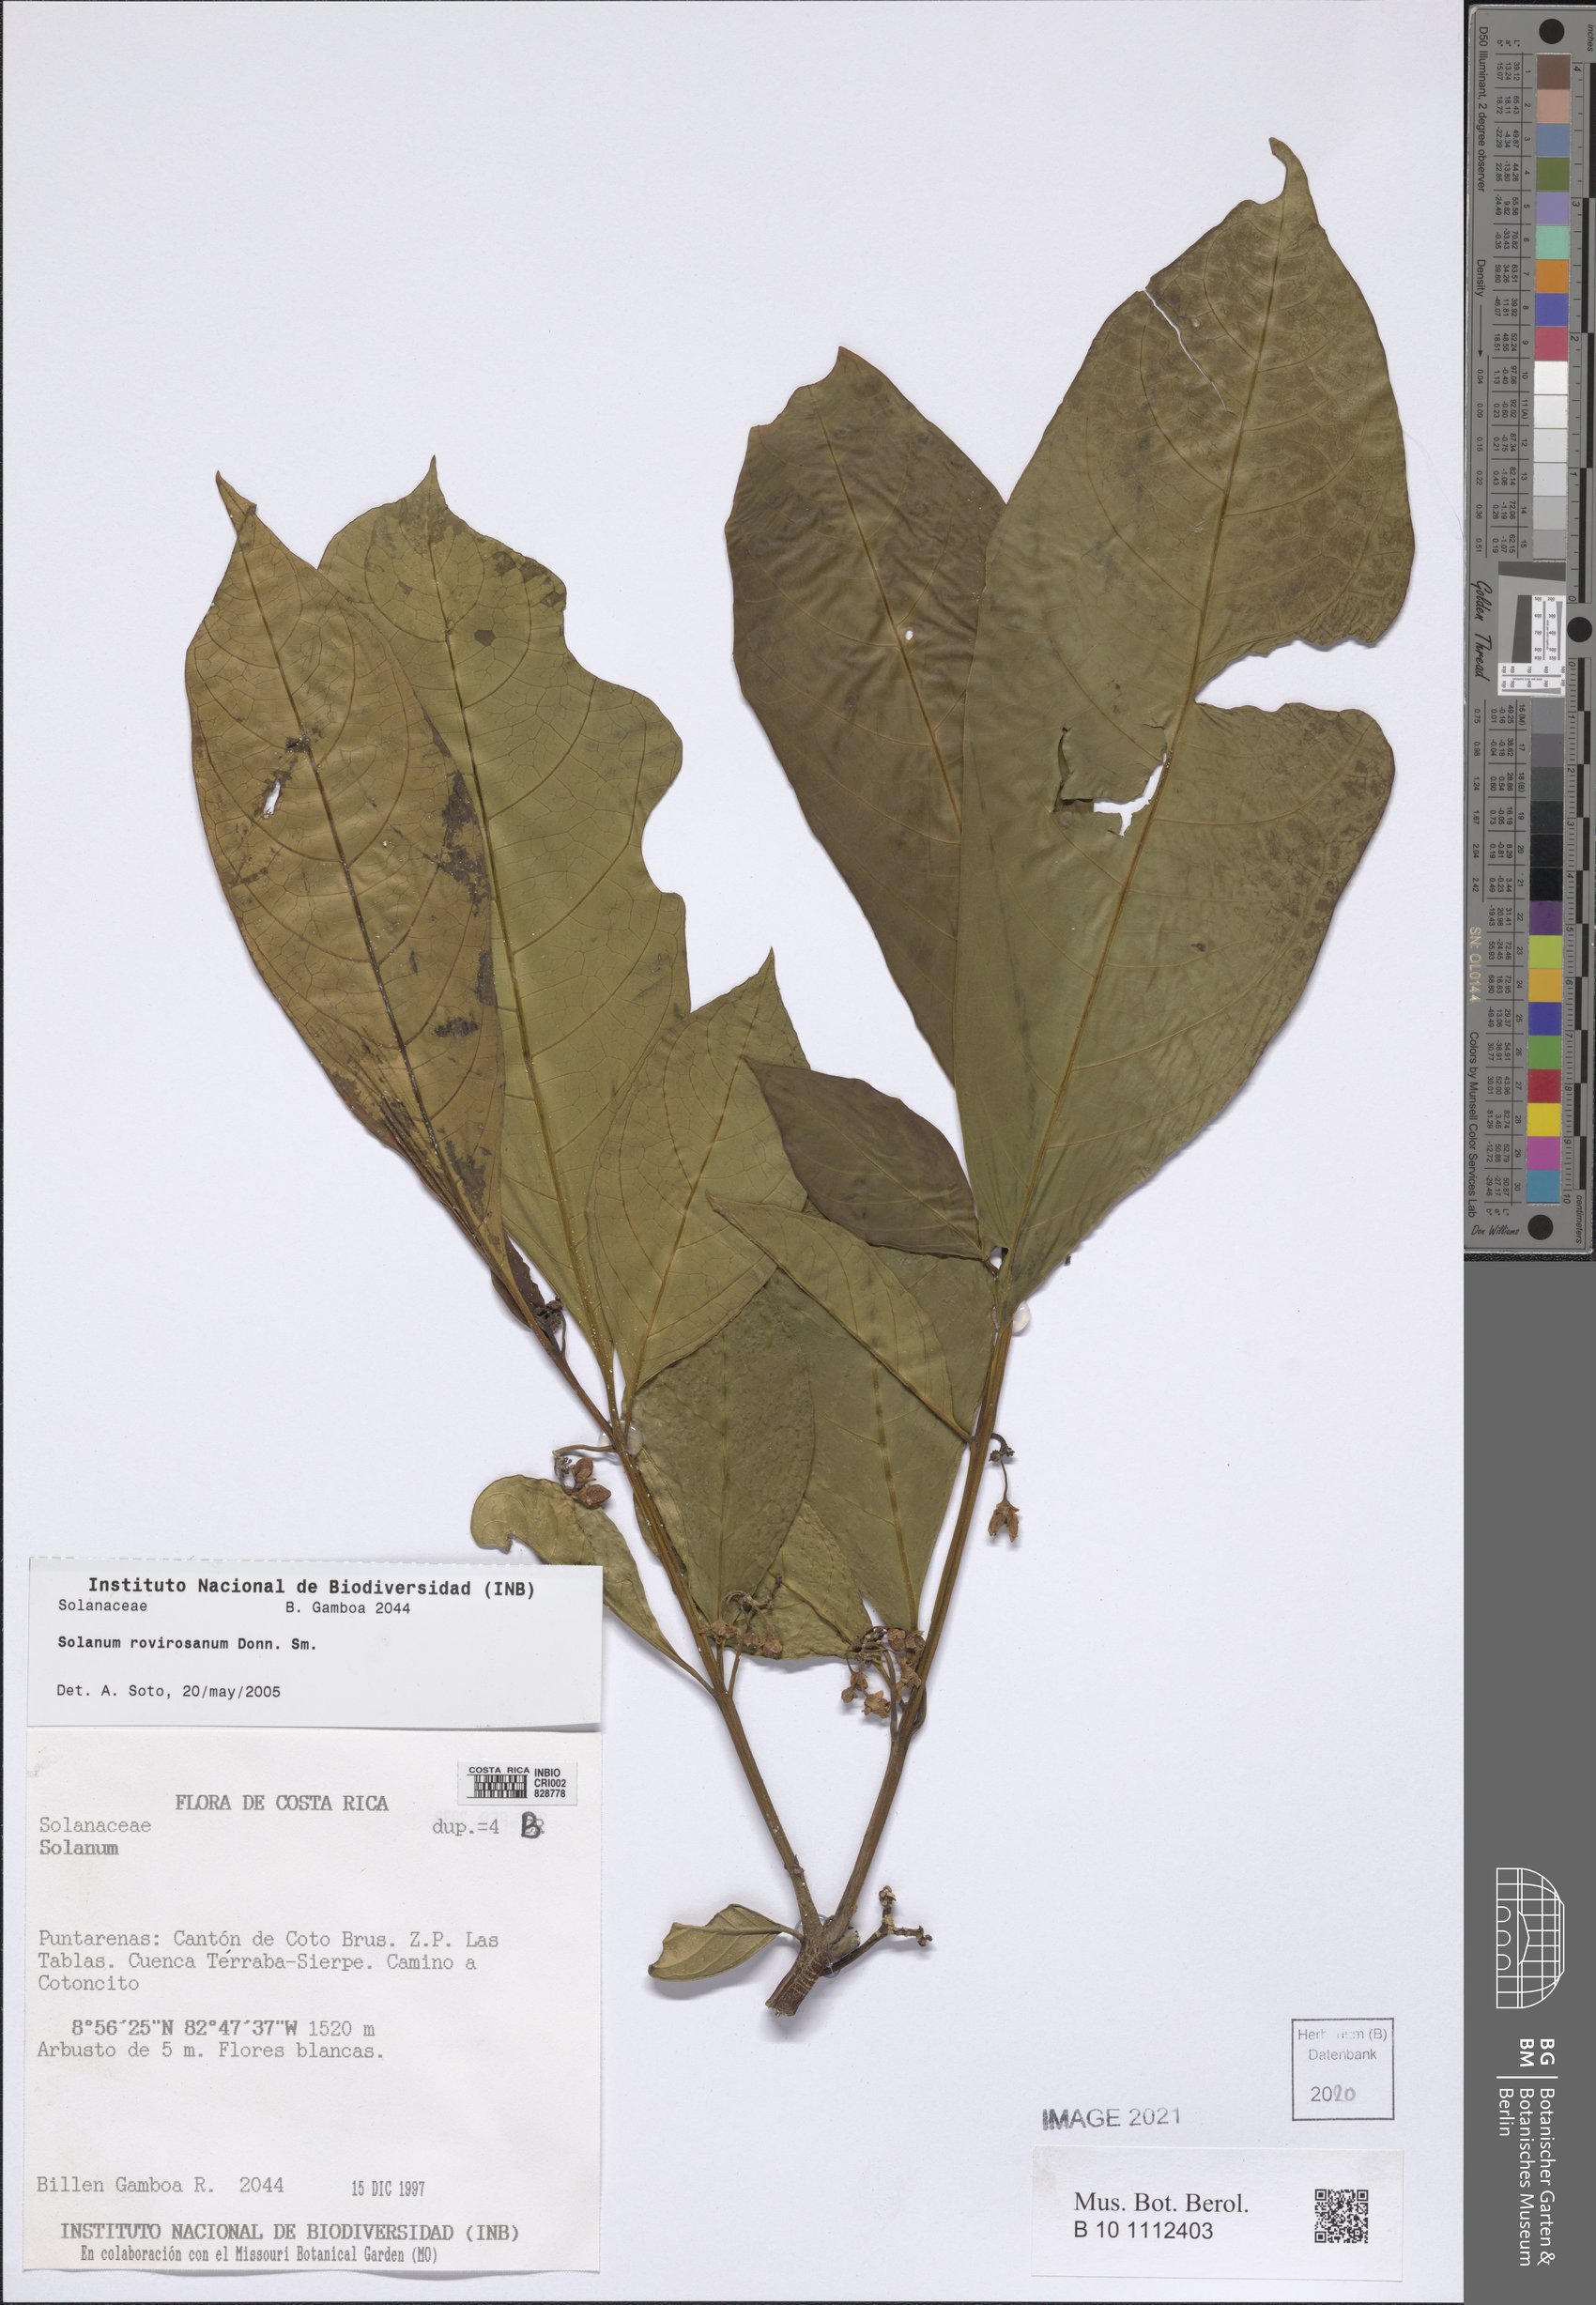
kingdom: Plantae
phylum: Tracheophyta
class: Magnoliopsida
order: Solanales
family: Solanaceae
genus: Solanum
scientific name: Solanum rovirosanum
